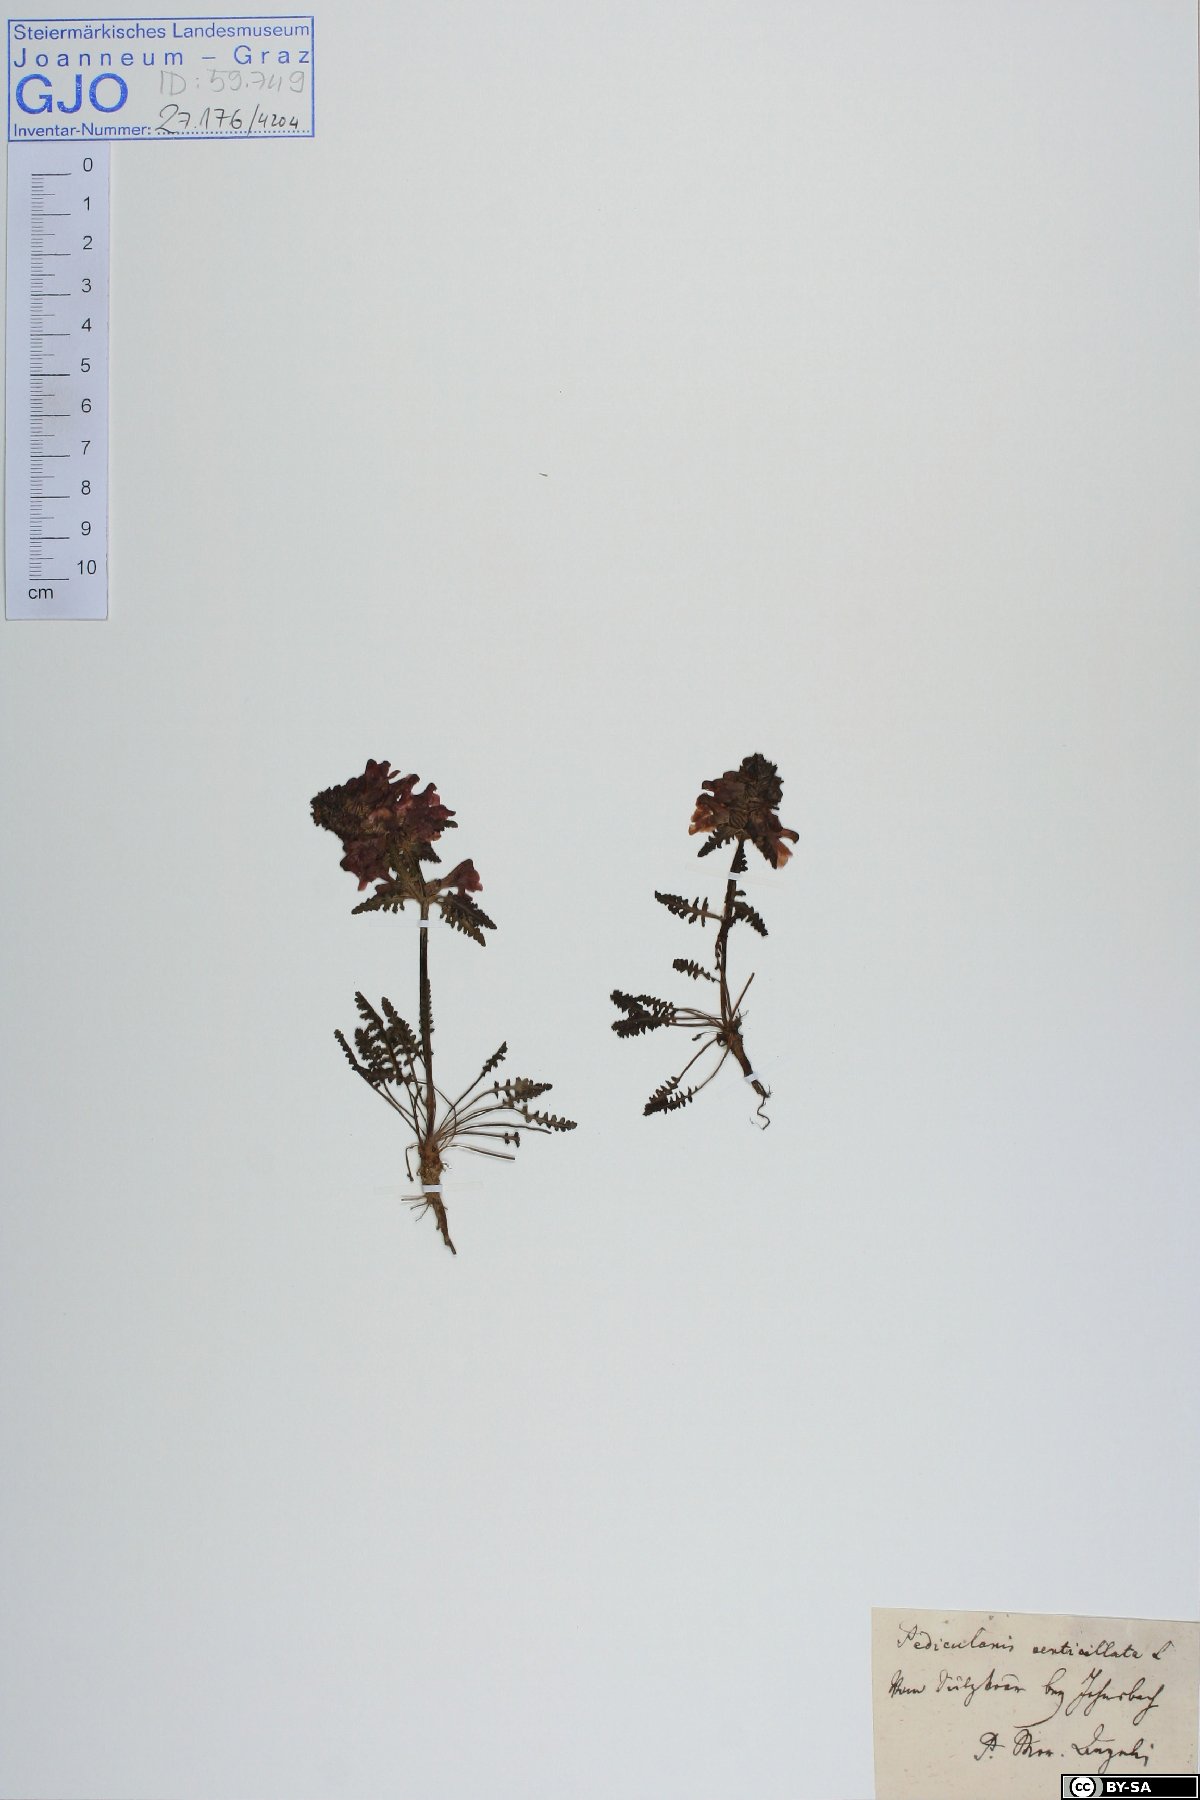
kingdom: Plantae
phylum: Tracheophyta
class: Magnoliopsida
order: Lamiales
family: Orobanchaceae
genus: Pedicularis
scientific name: Pedicularis verticillata
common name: Whorled lousewort
